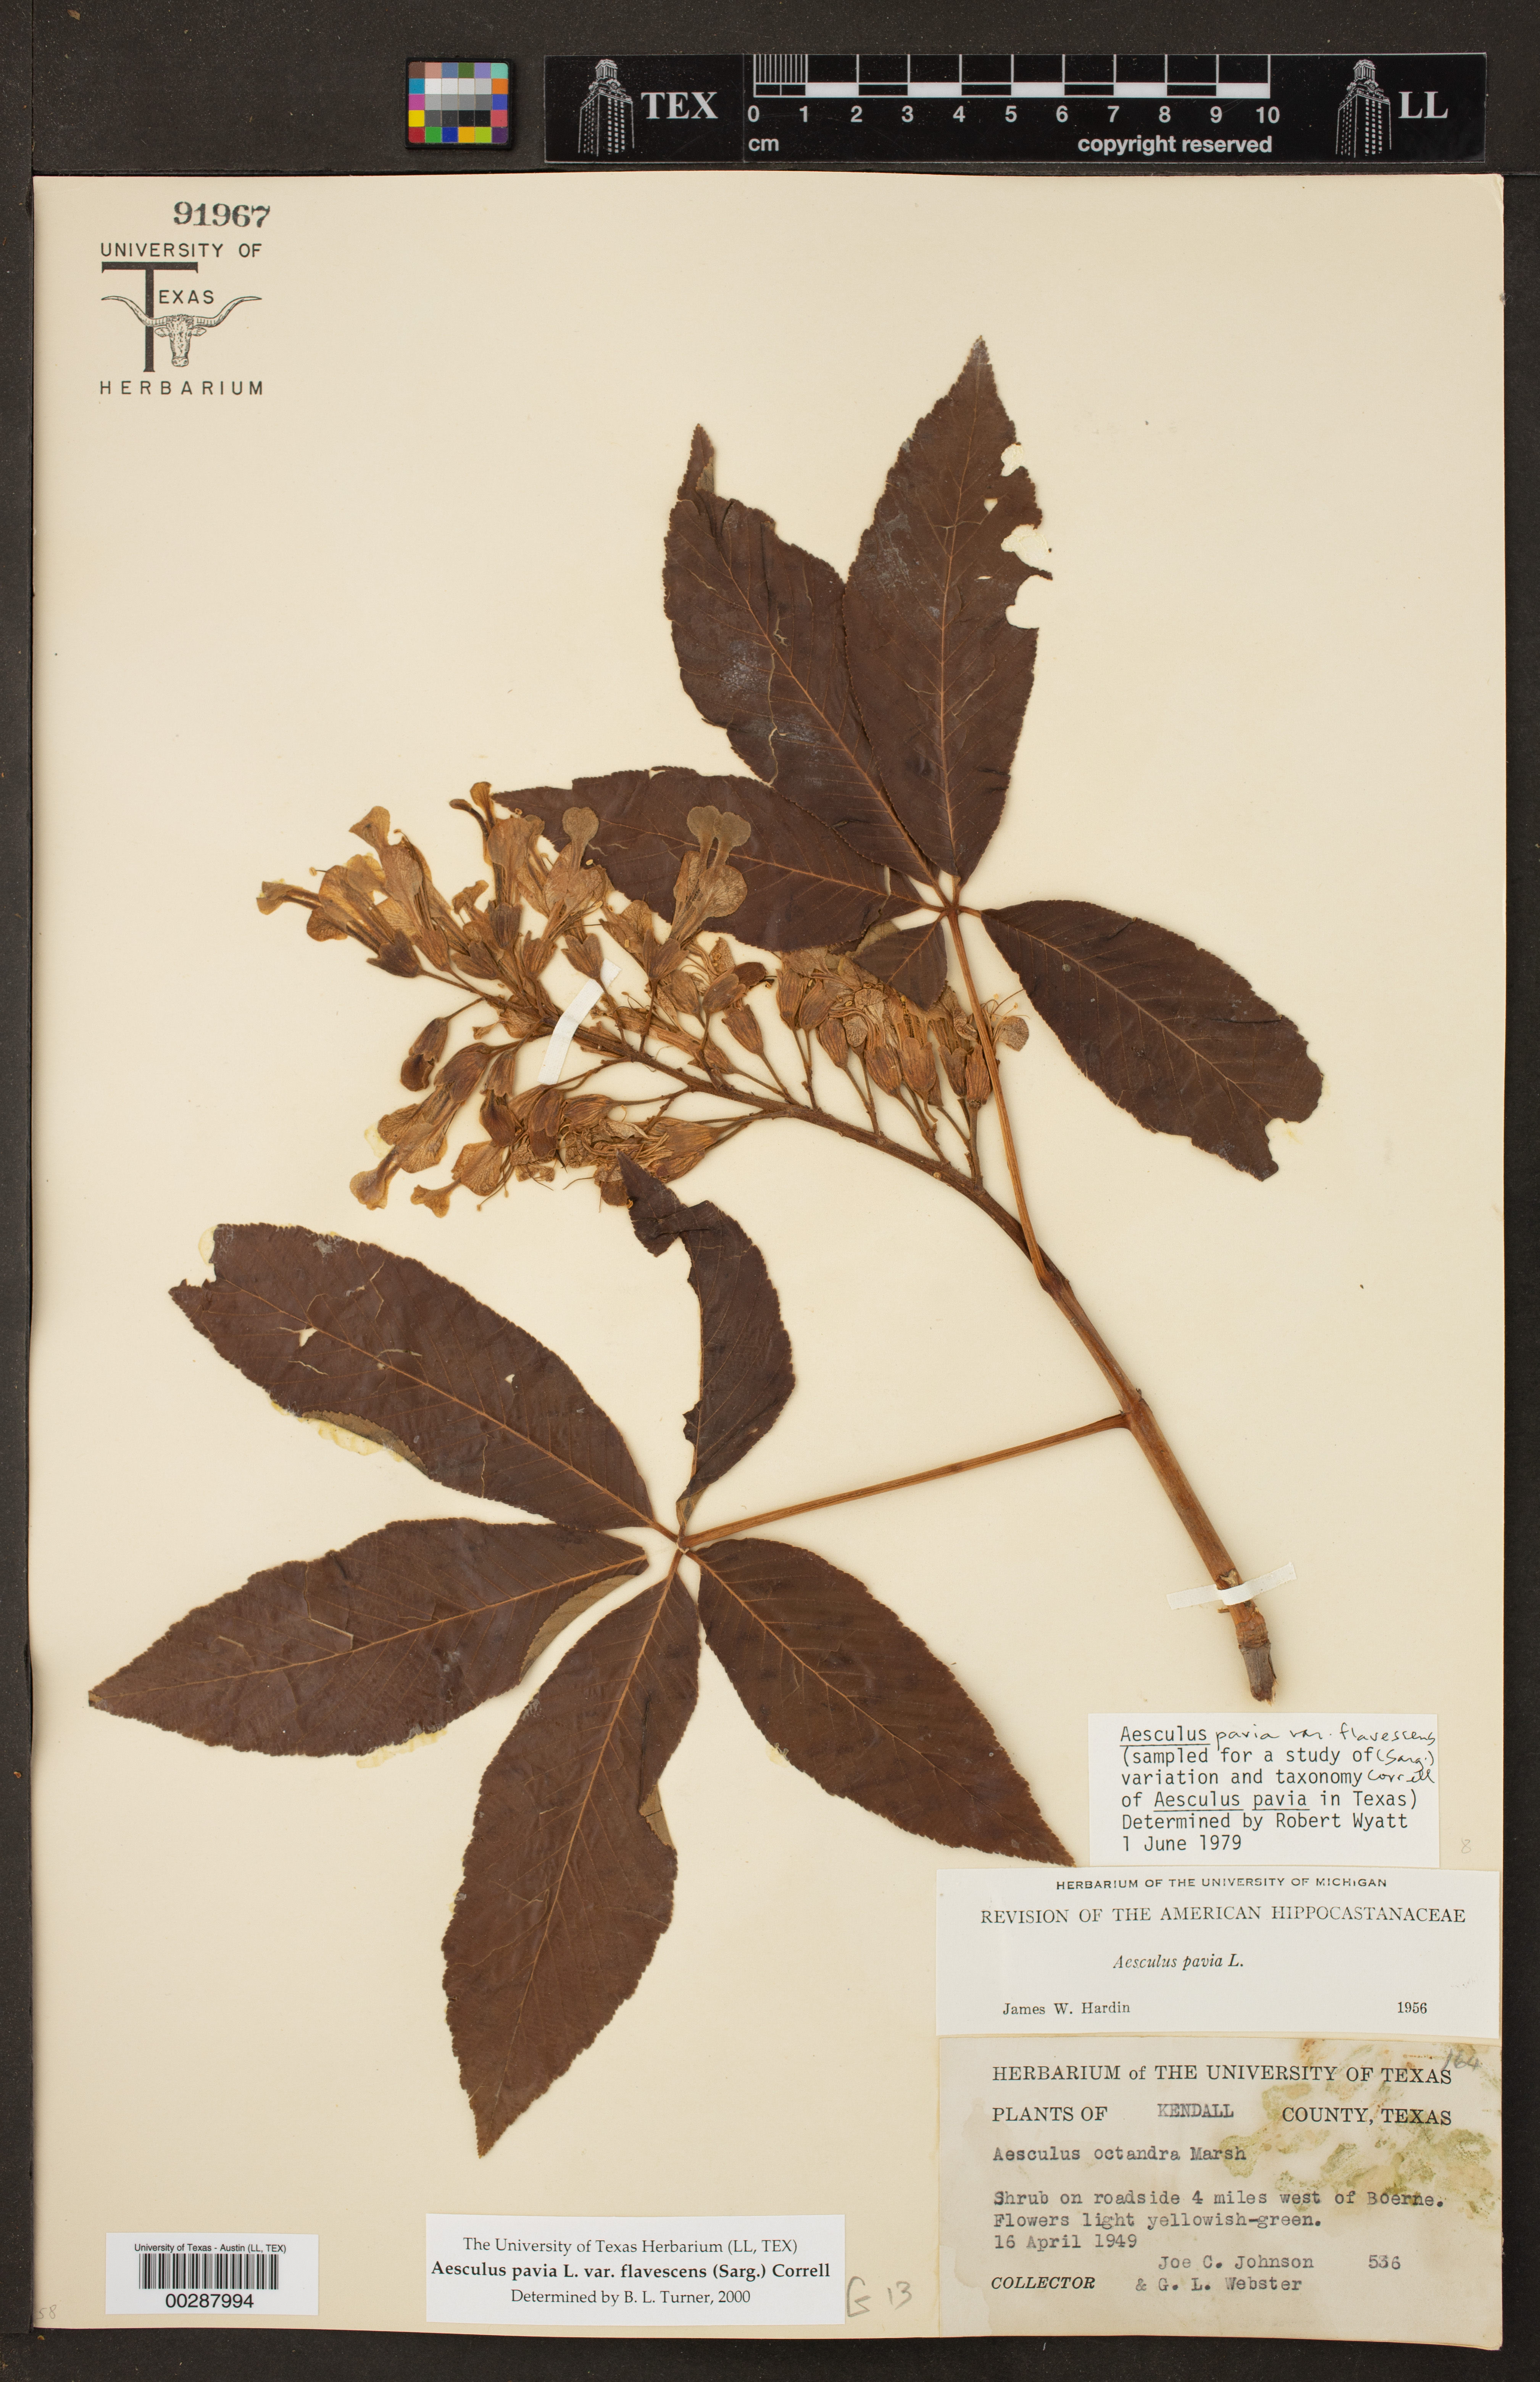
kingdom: Plantae
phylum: Tracheophyta
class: Magnoliopsida
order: Sapindales
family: Sapindaceae
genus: Aesculus
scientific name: Aesculus pavia
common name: Red buckeye
